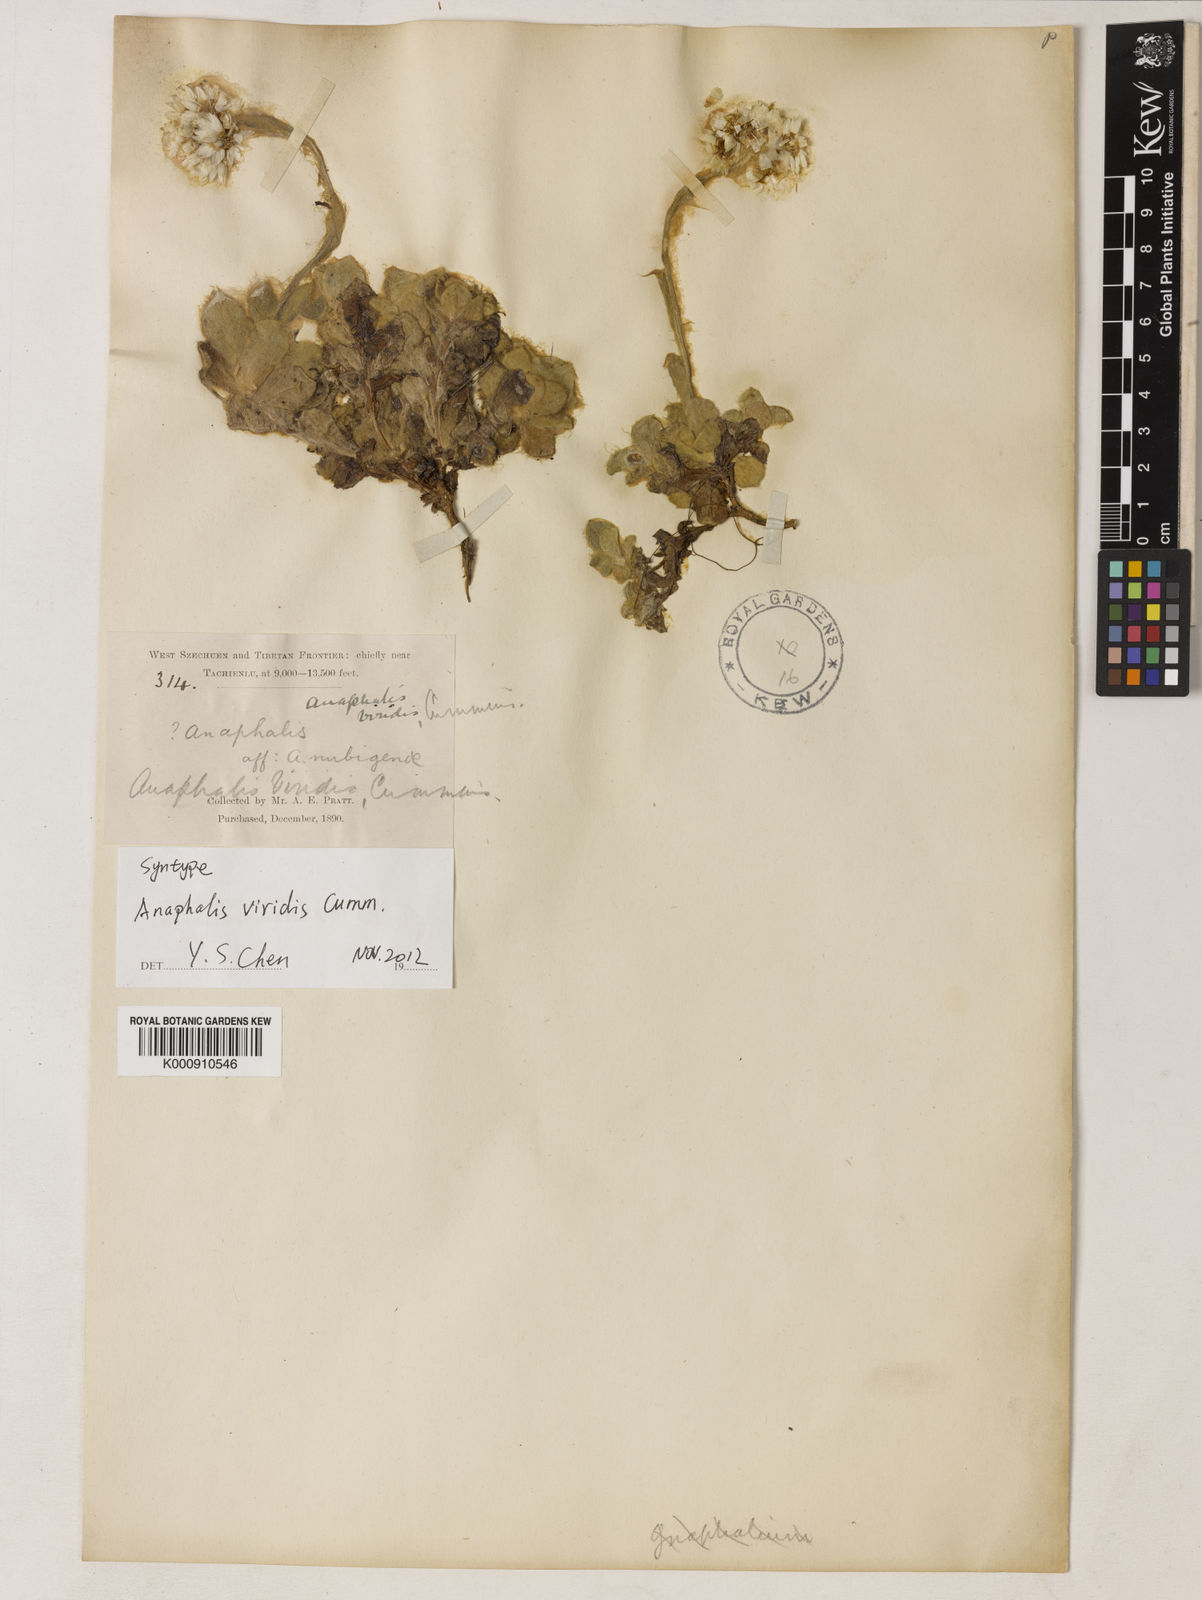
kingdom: Plantae
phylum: Tracheophyta
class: Magnoliopsida
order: Asterales
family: Asteraceae
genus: Anaphalis
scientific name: Anaphalis viridis
